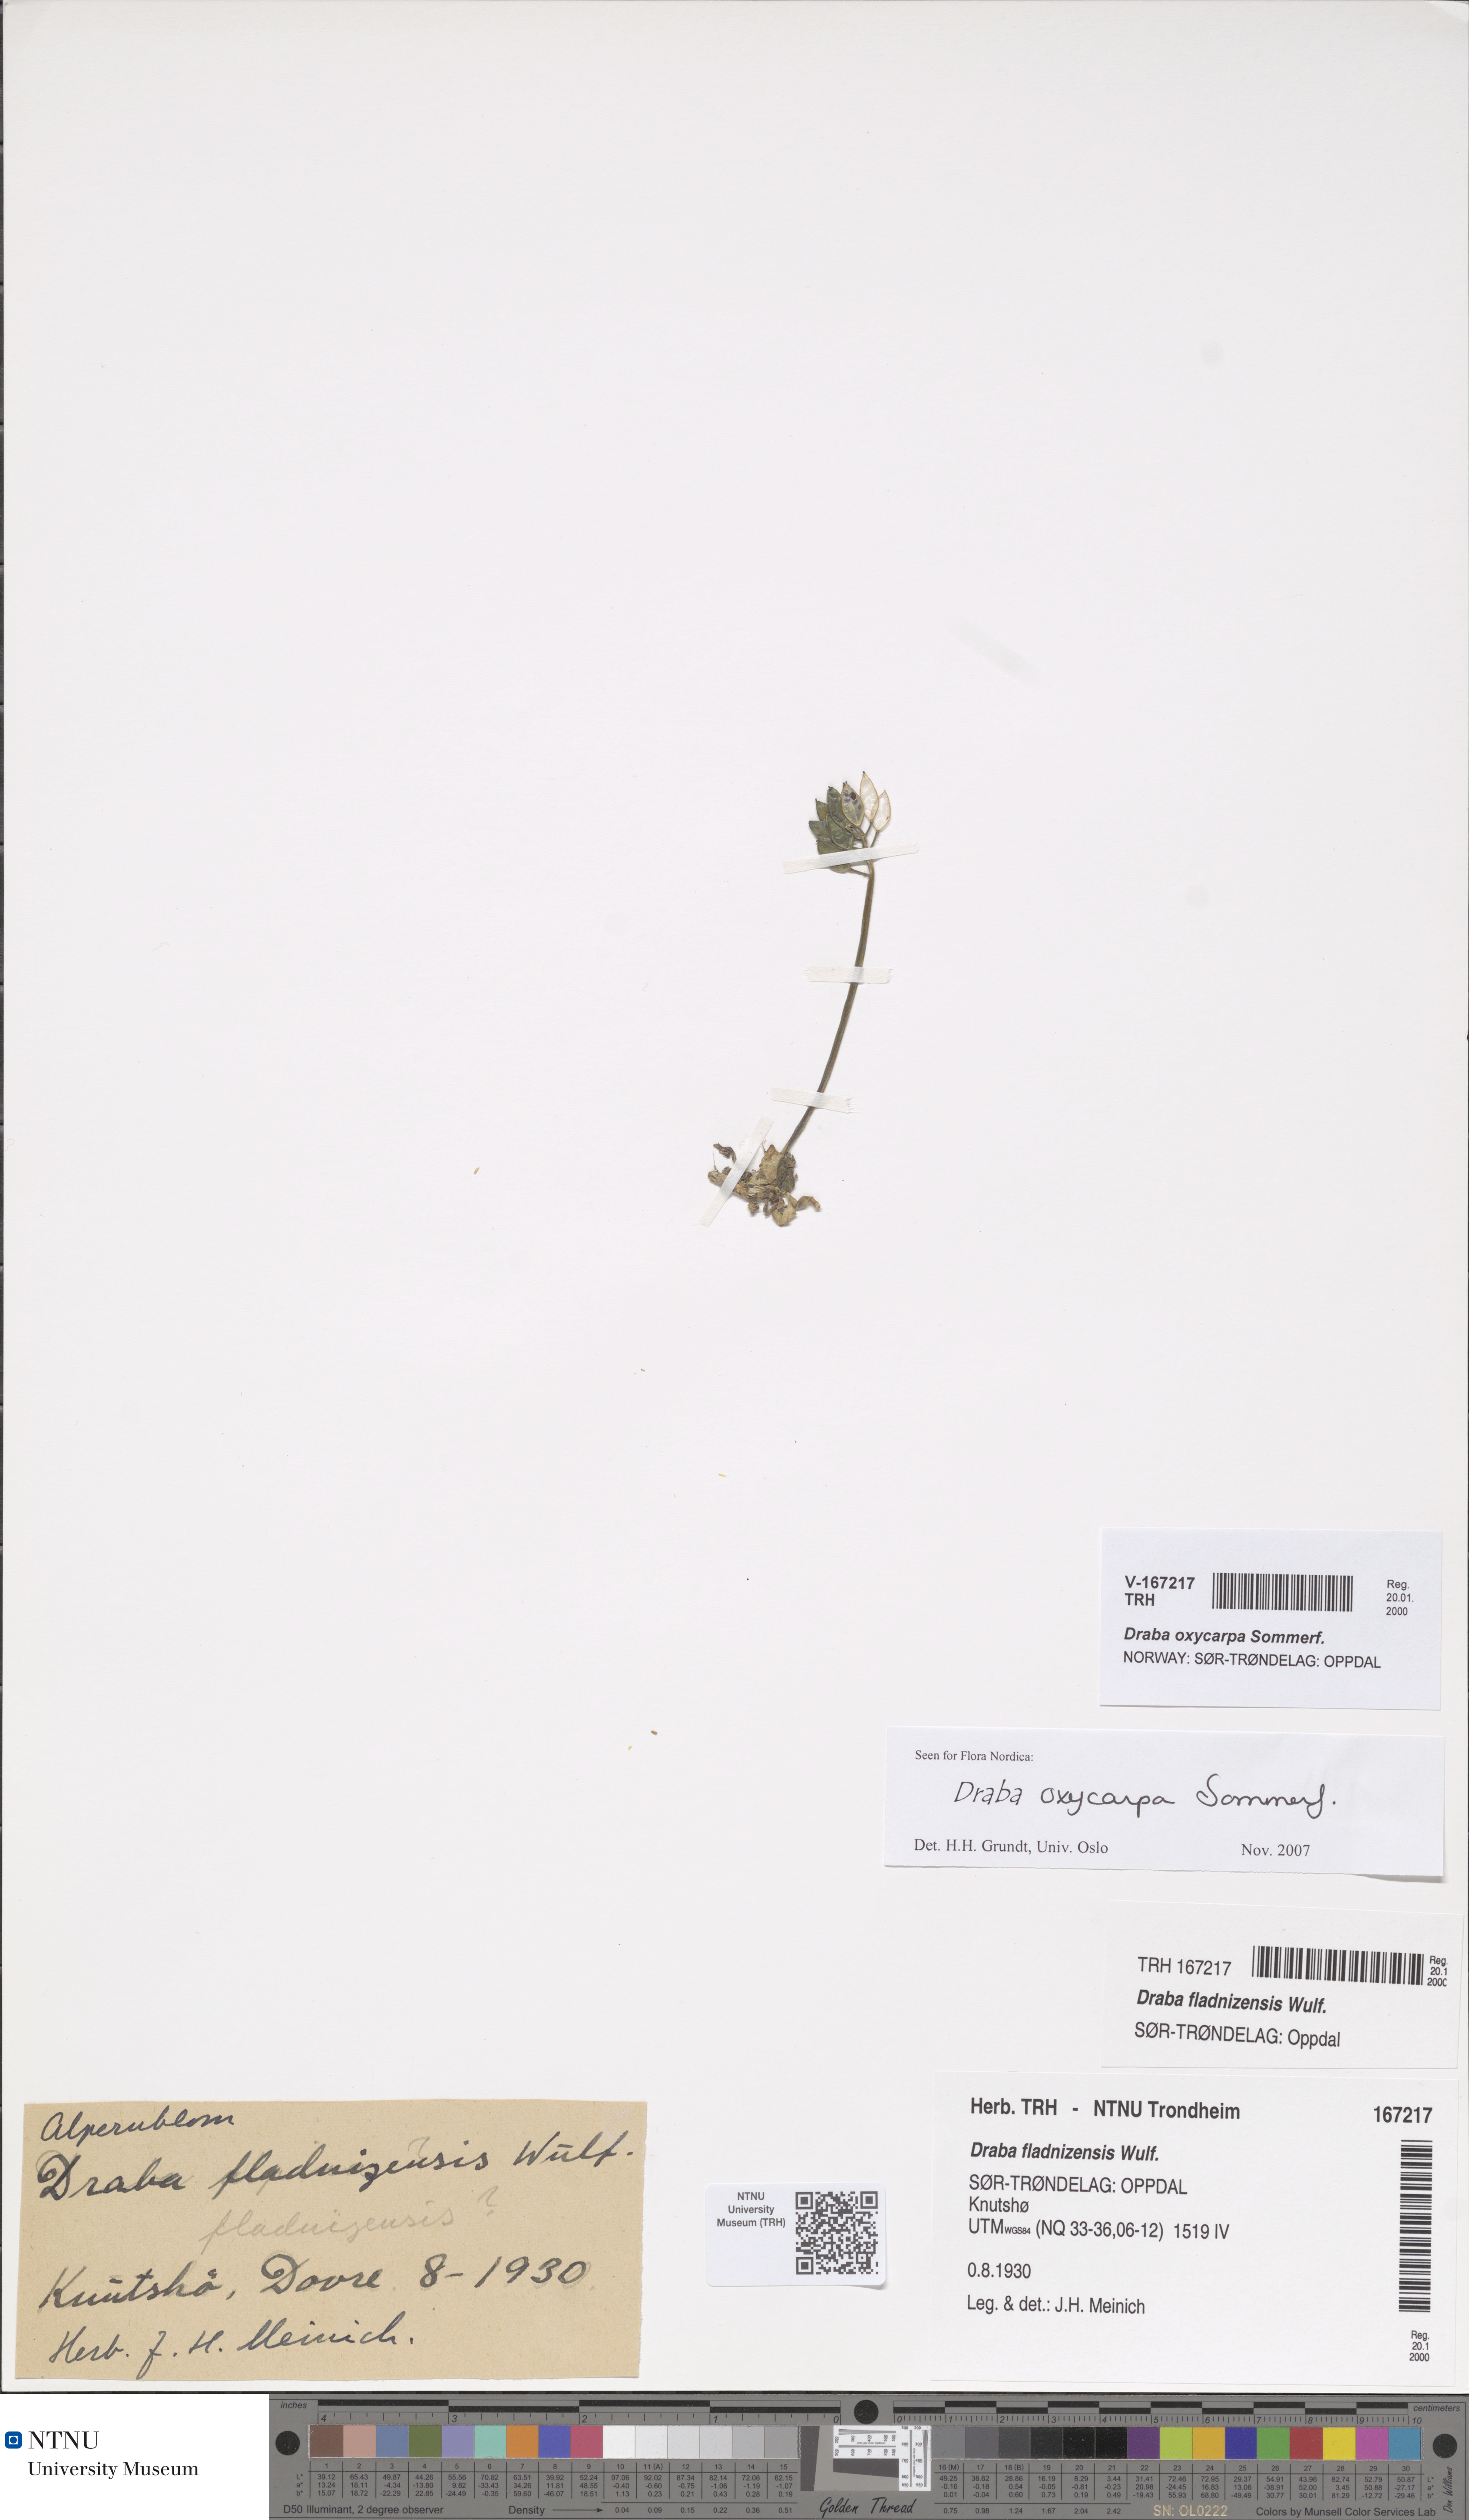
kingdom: Plantae
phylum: Tracheophyta
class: Magnoliopsida
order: Brassicales
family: Brassicaceae
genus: Draba
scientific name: Draba oxycarpa
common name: Sharp-fruited whitlow-grass
